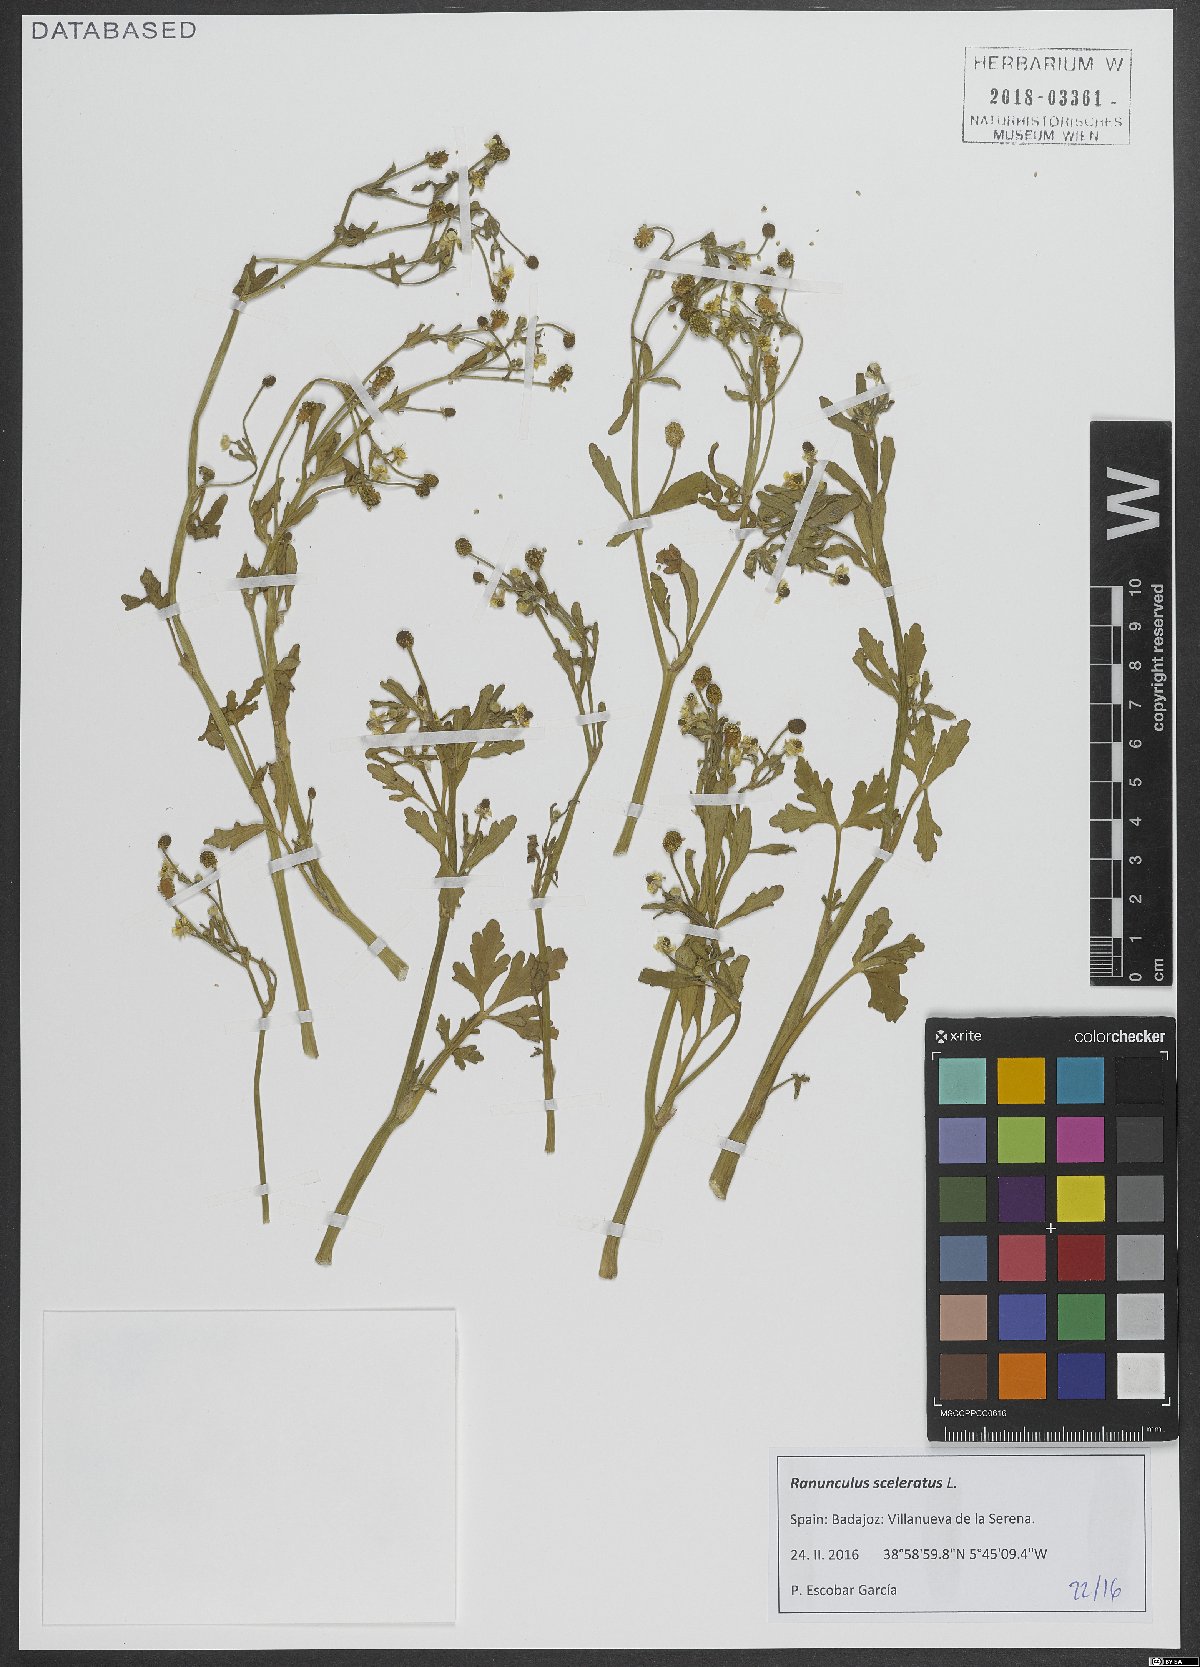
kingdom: Plantae
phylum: Tracheophyta
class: Magnoliopsida
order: Ranunculales
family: Ranunculaceae
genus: Ranunculus
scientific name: Ranunculus sceleratus
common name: Celery-leaved buttercup
